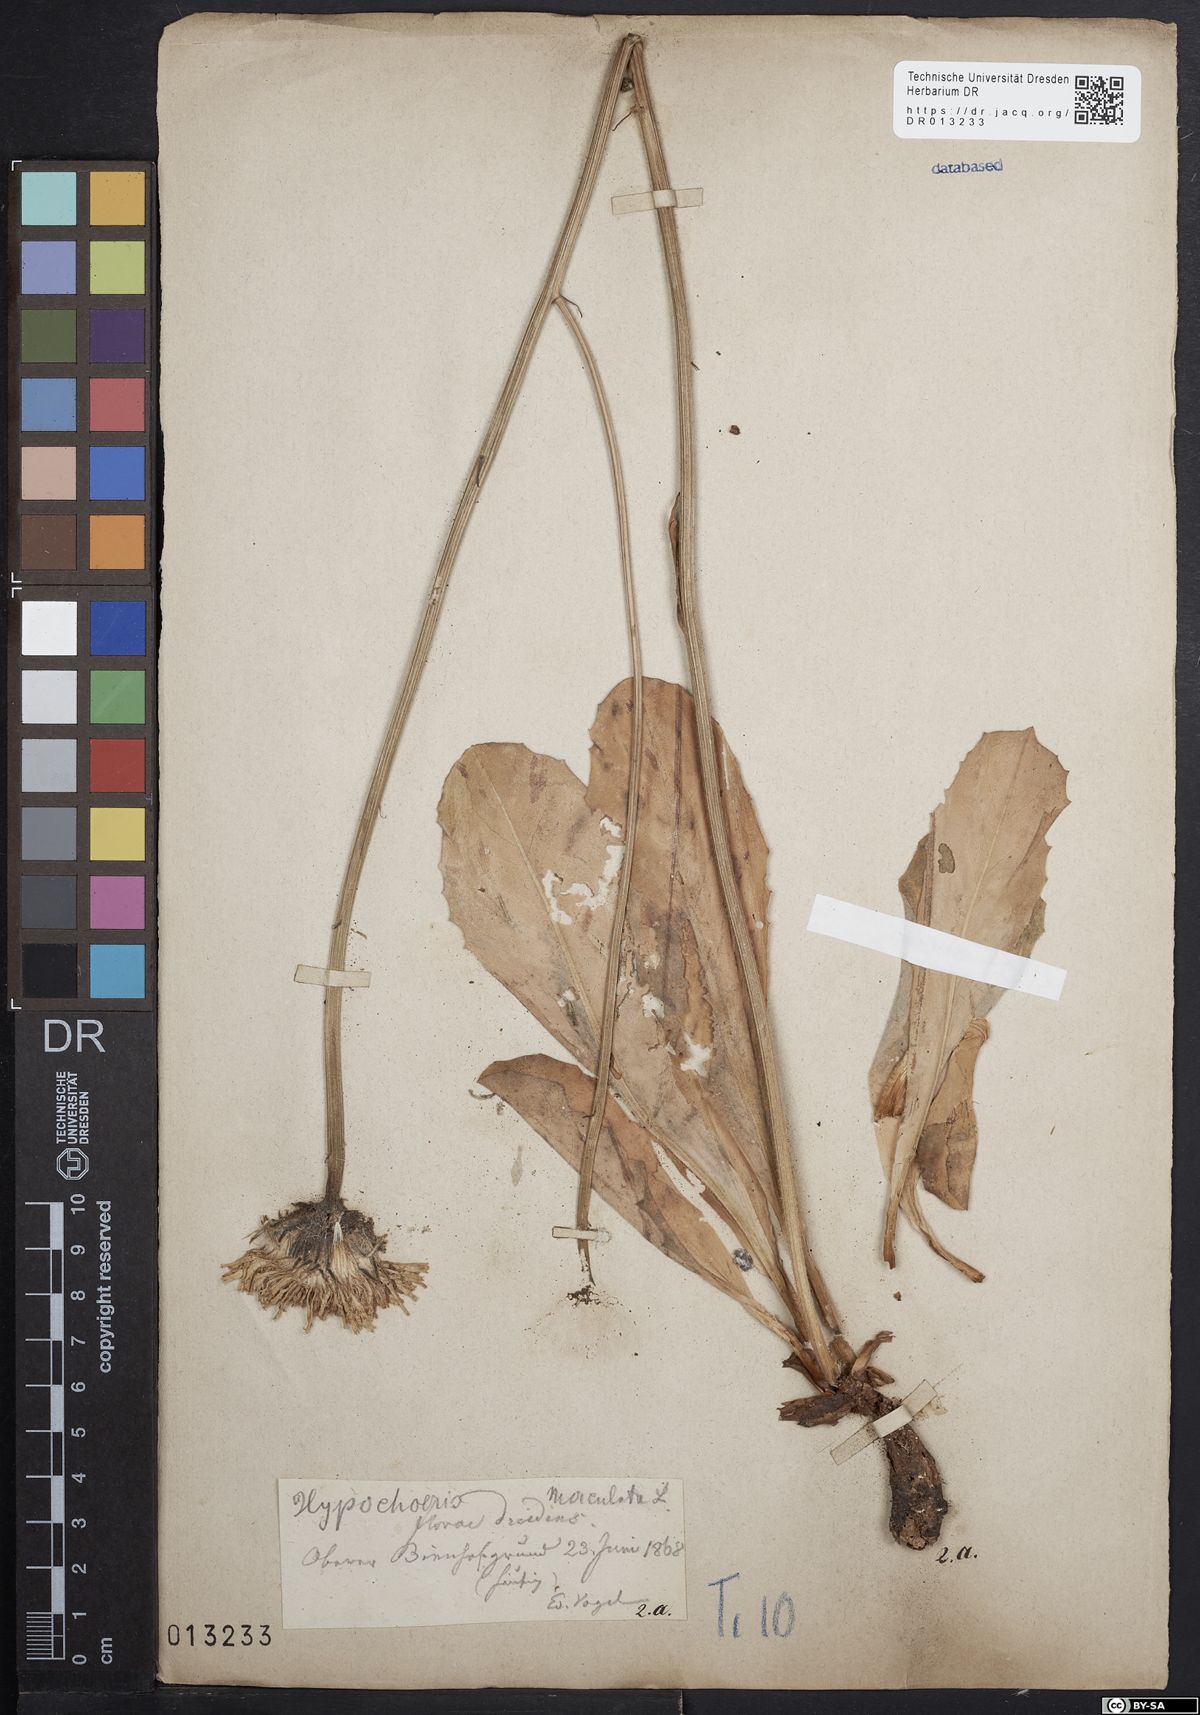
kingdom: Plantae
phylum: Tracheophyta
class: Magnoliopsida
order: Asterales
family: Asteraceae
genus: Trommsdorffia
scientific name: Trommsdorffia maculata
